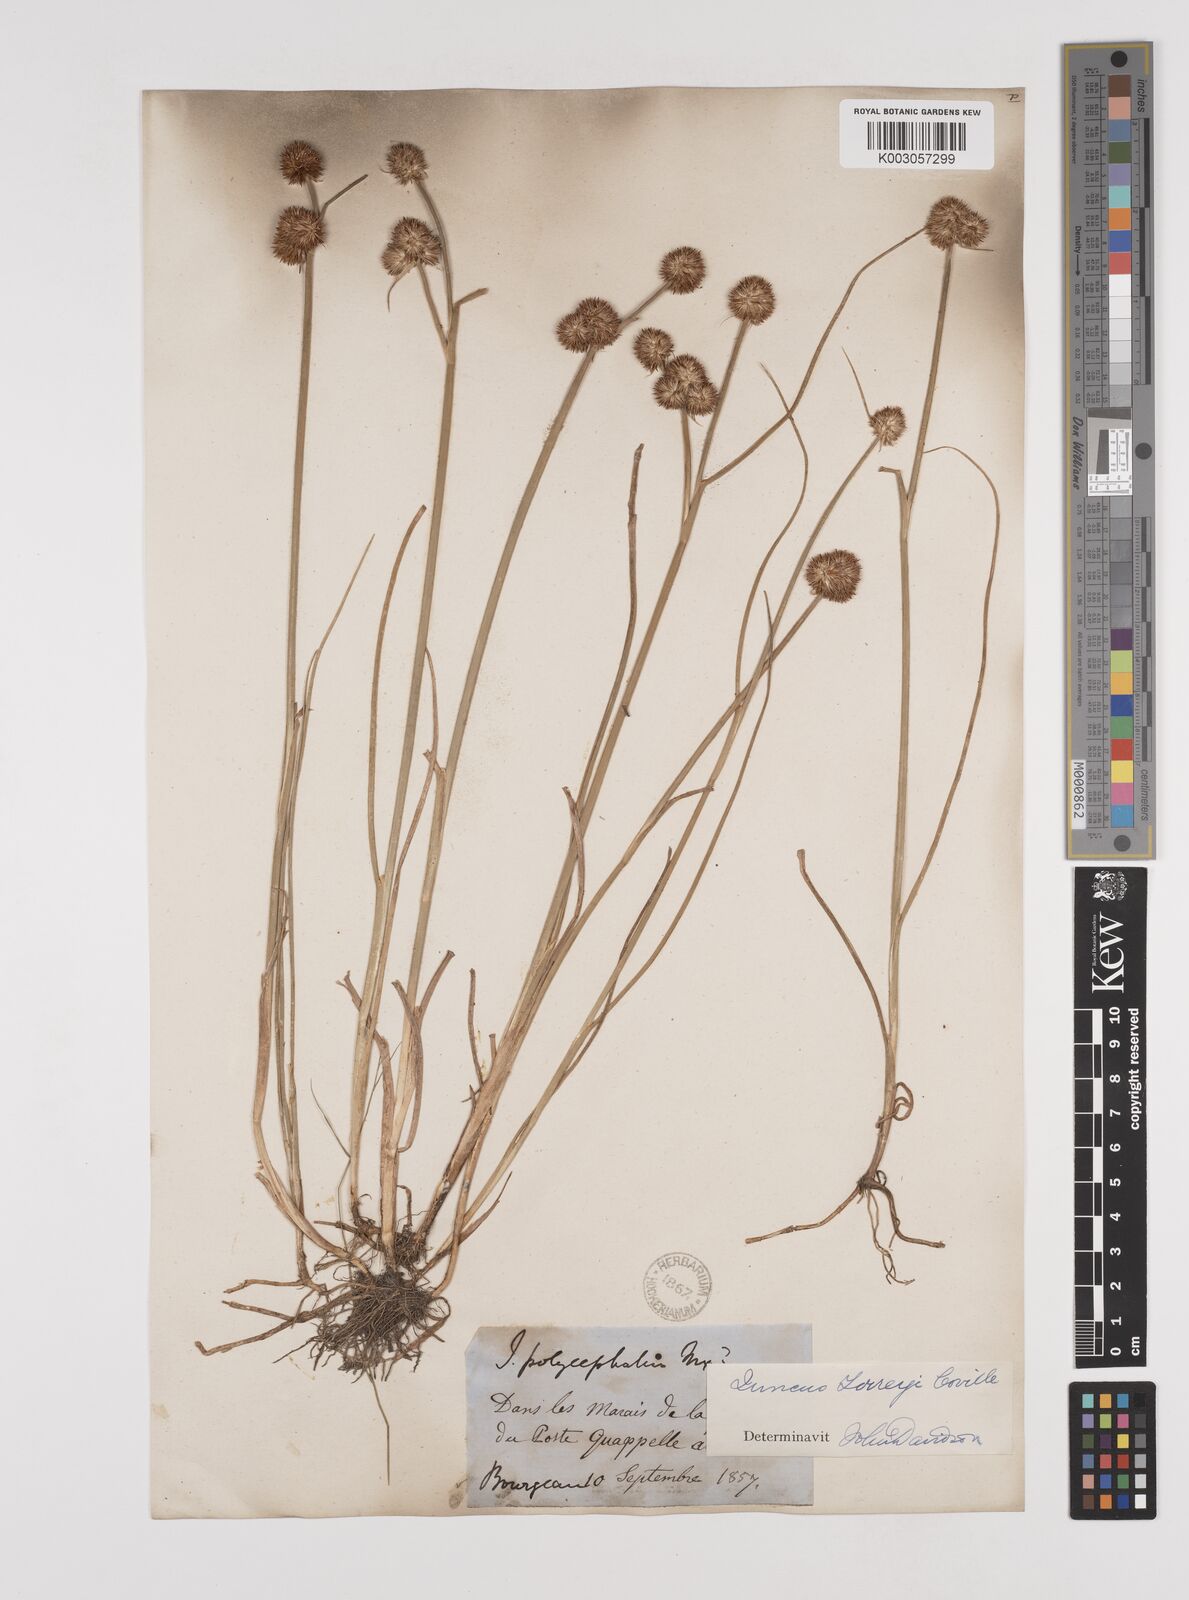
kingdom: Plantae
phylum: Tracheophyta
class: Liliopsida
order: Poales
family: Juncaceae
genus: Juncus
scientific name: Juncus nodosus
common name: Knotted rush
